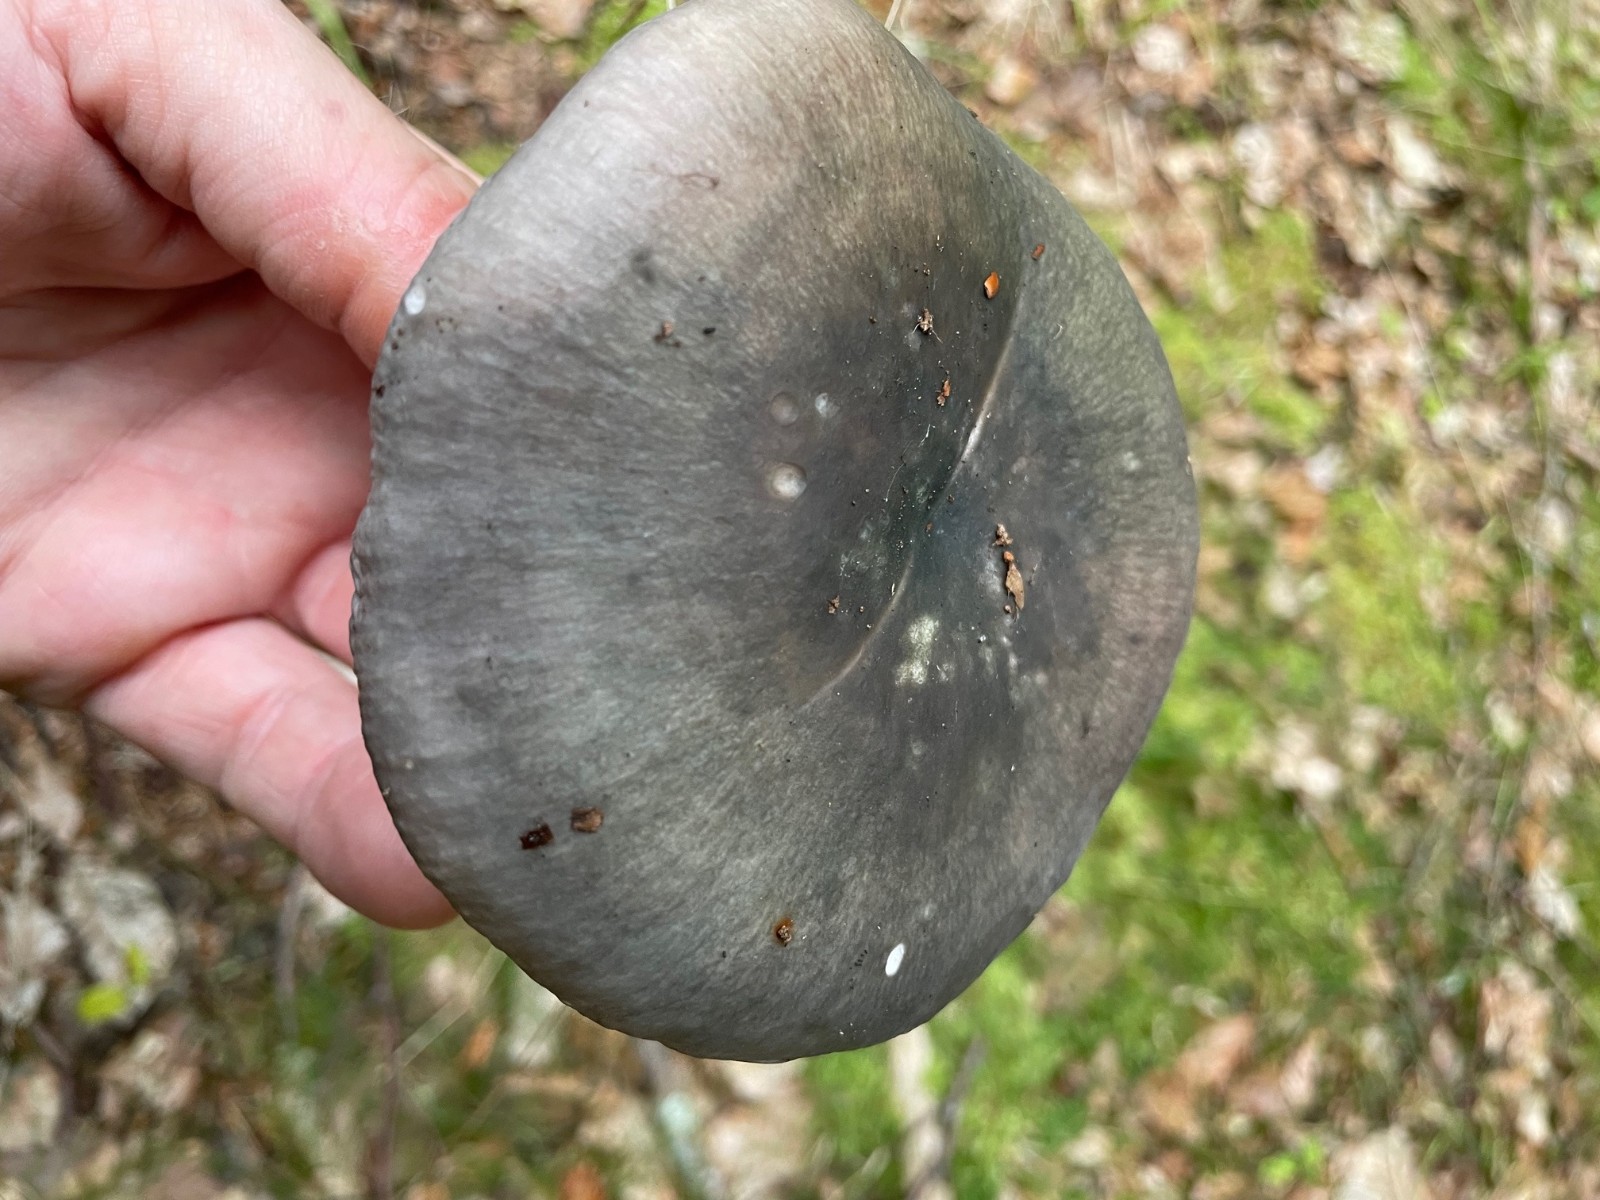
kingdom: Fungi
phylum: Basidiomycota
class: Agaricomycetes
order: Russulales
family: Russulaceae
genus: Russula
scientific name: Russula cyanoxantha
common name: broget skørhat
